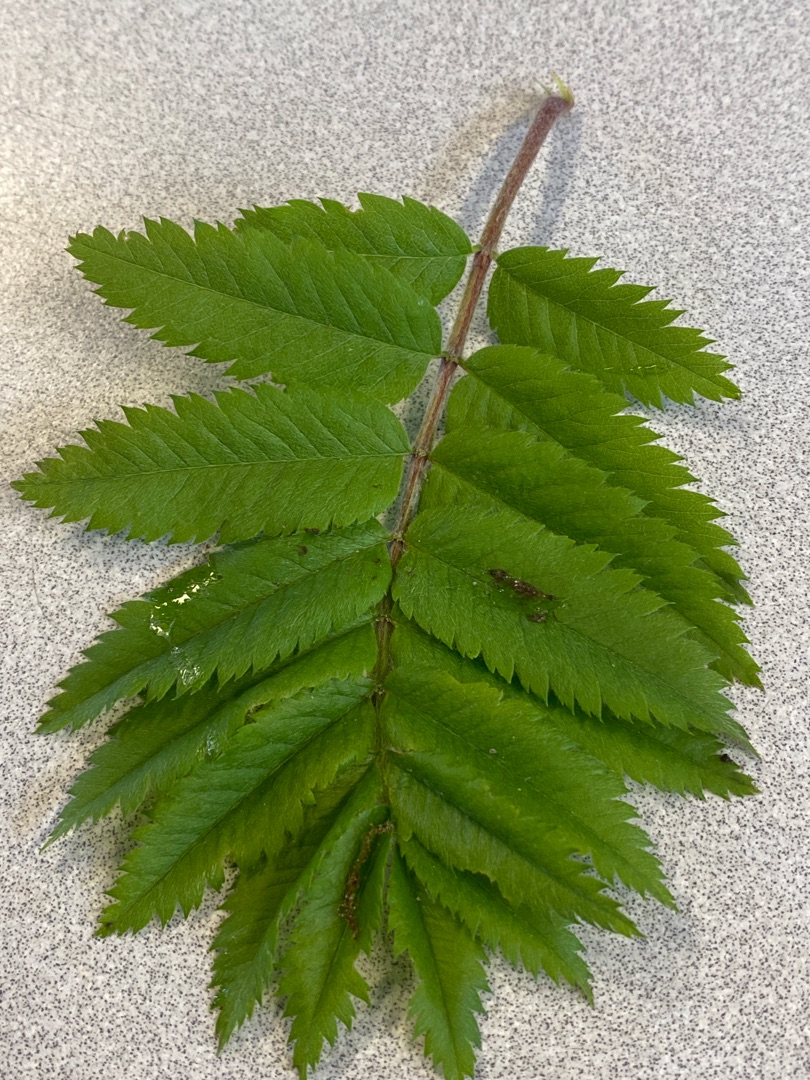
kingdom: Plantae
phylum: Tracheophyta
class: Magnoliopsida
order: Rosales
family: Rosaceae
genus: Sorbus
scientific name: Sorbus aucuparia
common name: Almindelig røn
